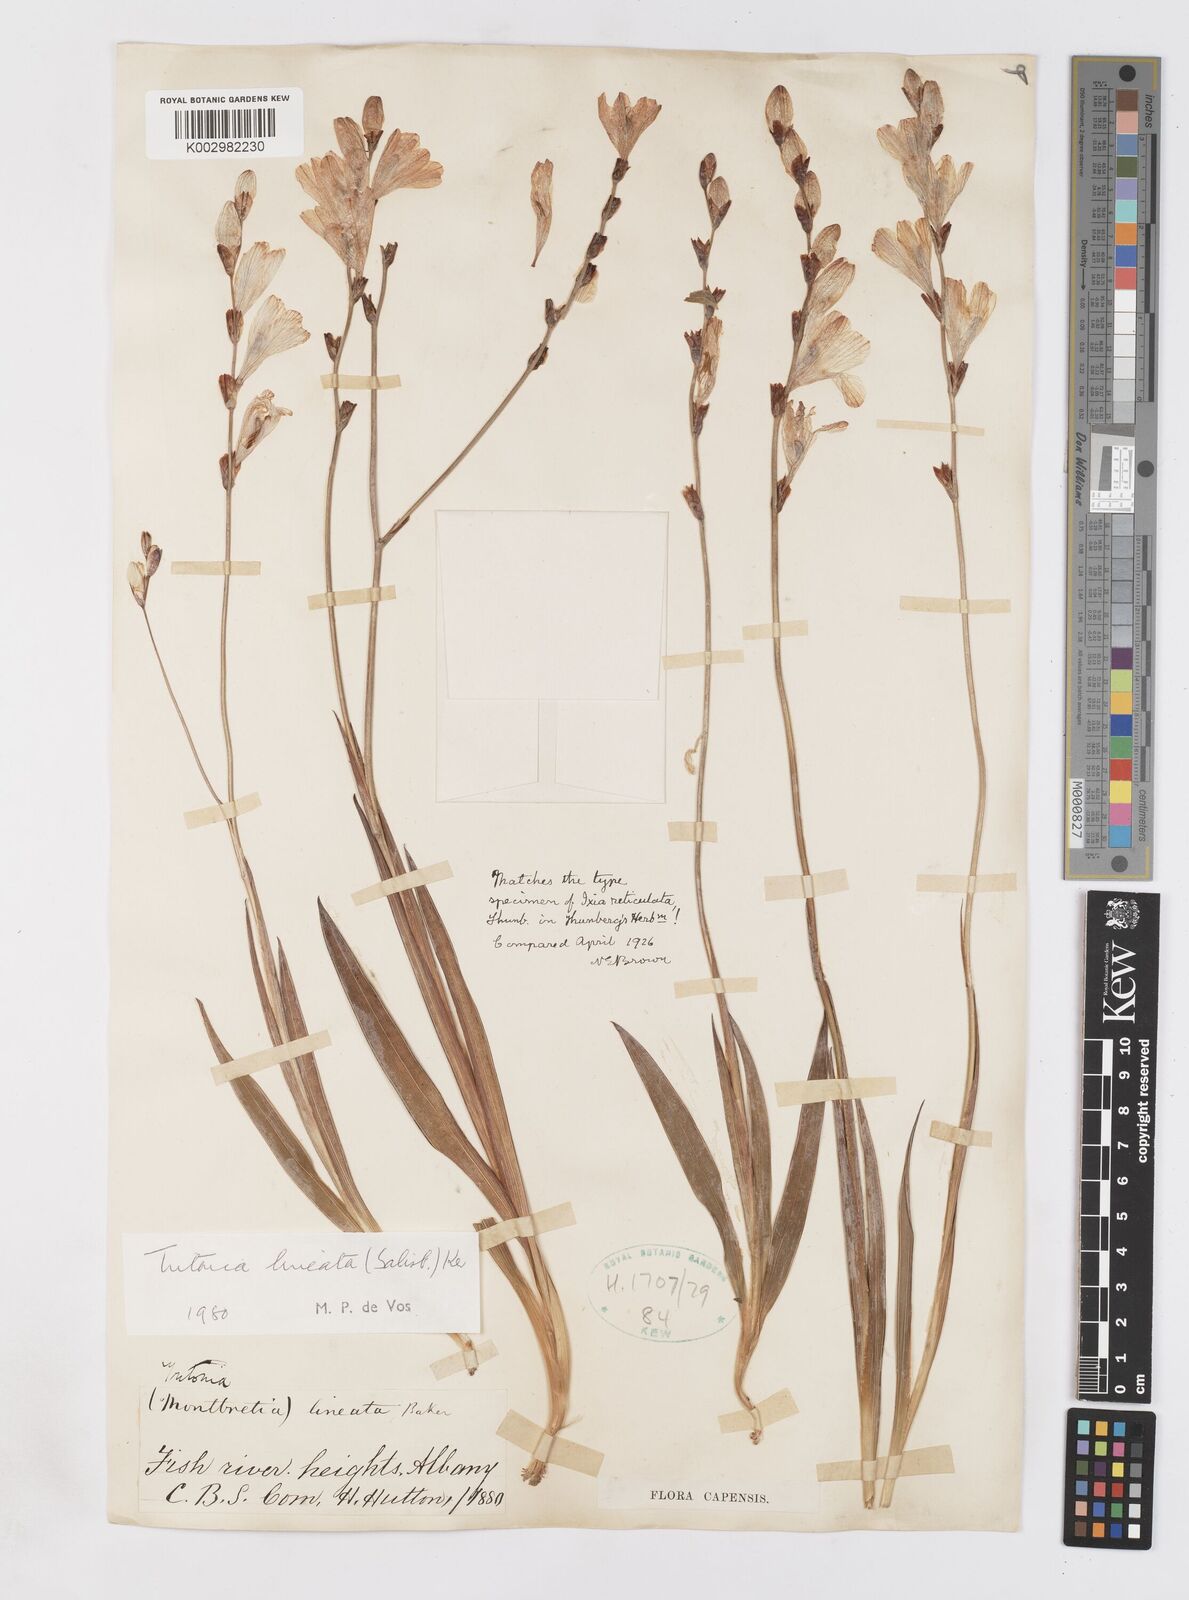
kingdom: Plantae
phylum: Tracheophyta
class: Liliopsida
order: Asparagales
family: Iridaceae
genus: Tritonia
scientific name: Tritonia gladiolaris
